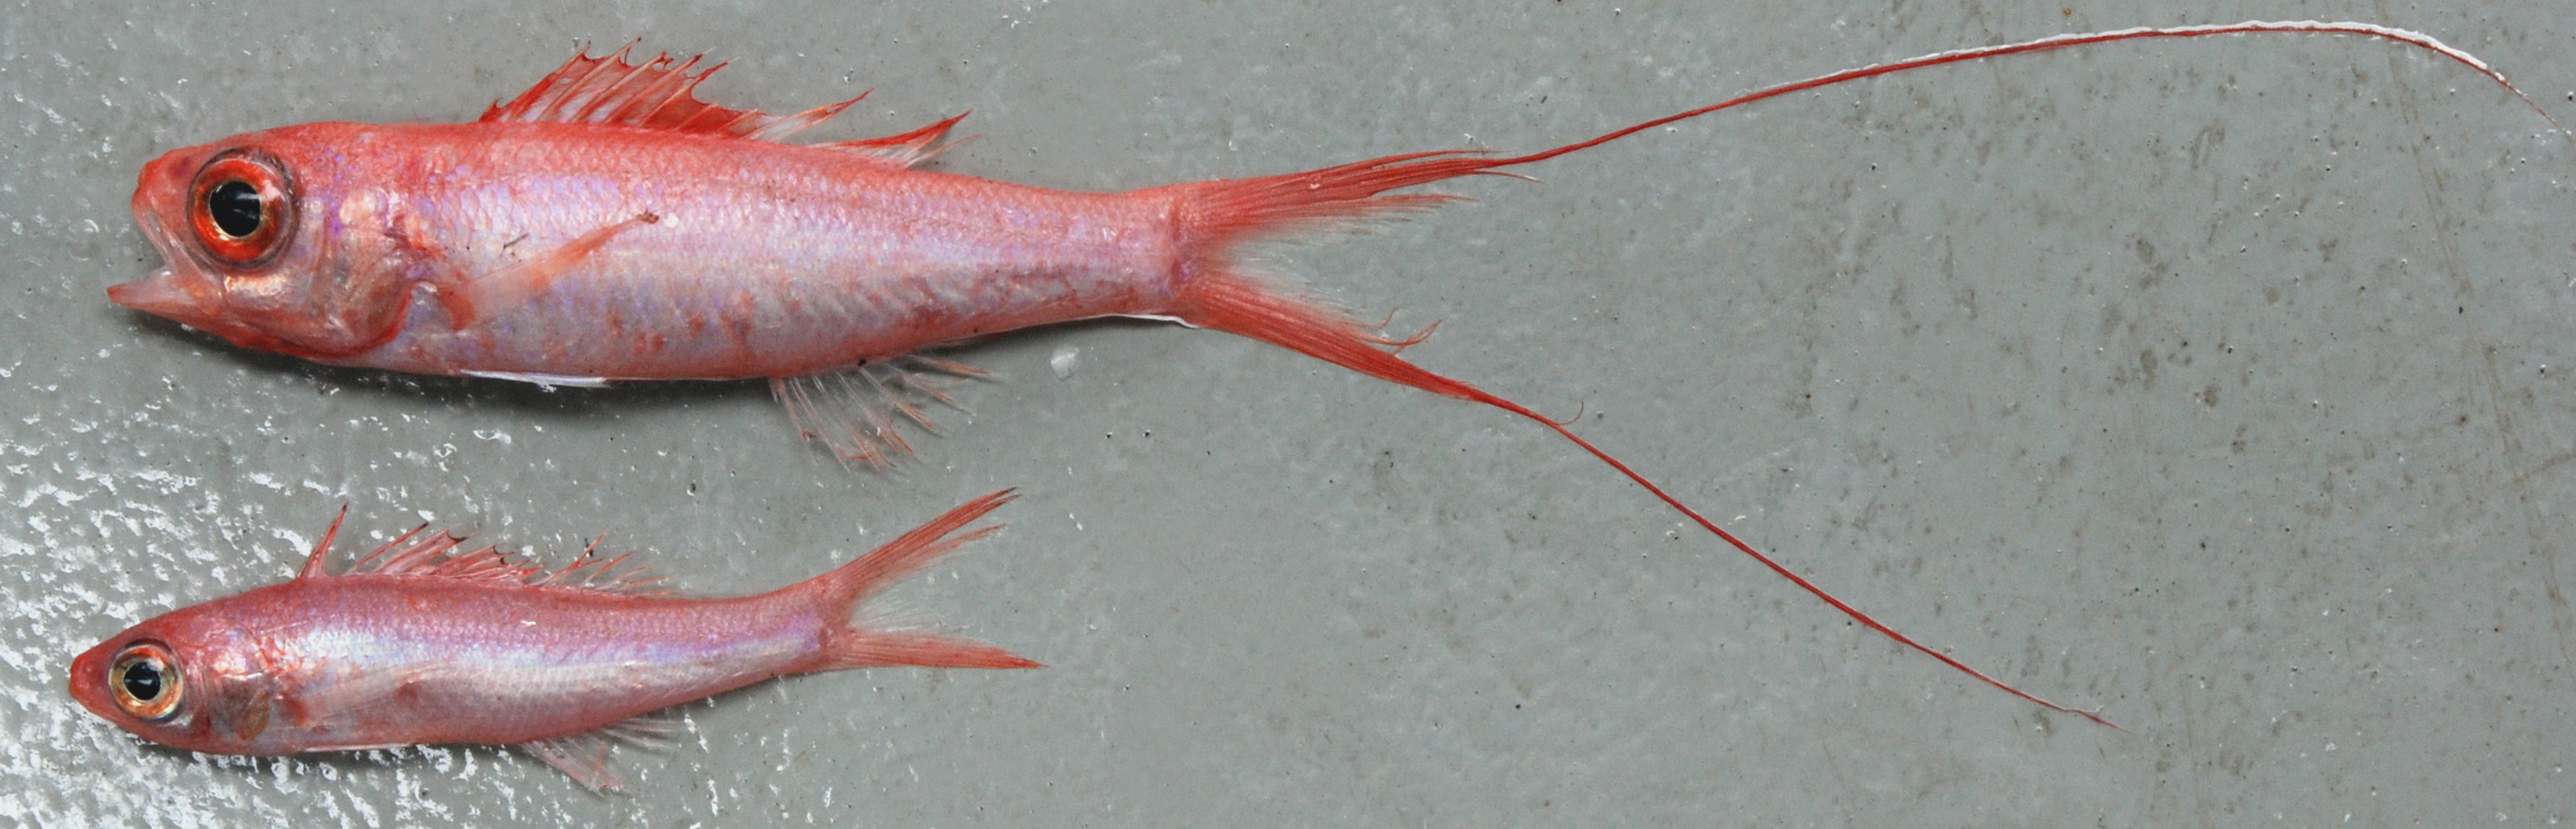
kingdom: Animalia
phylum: Chordata
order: Perciformes
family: Symphysanodontidae
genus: Symphysanodon
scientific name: Symphysanodon
